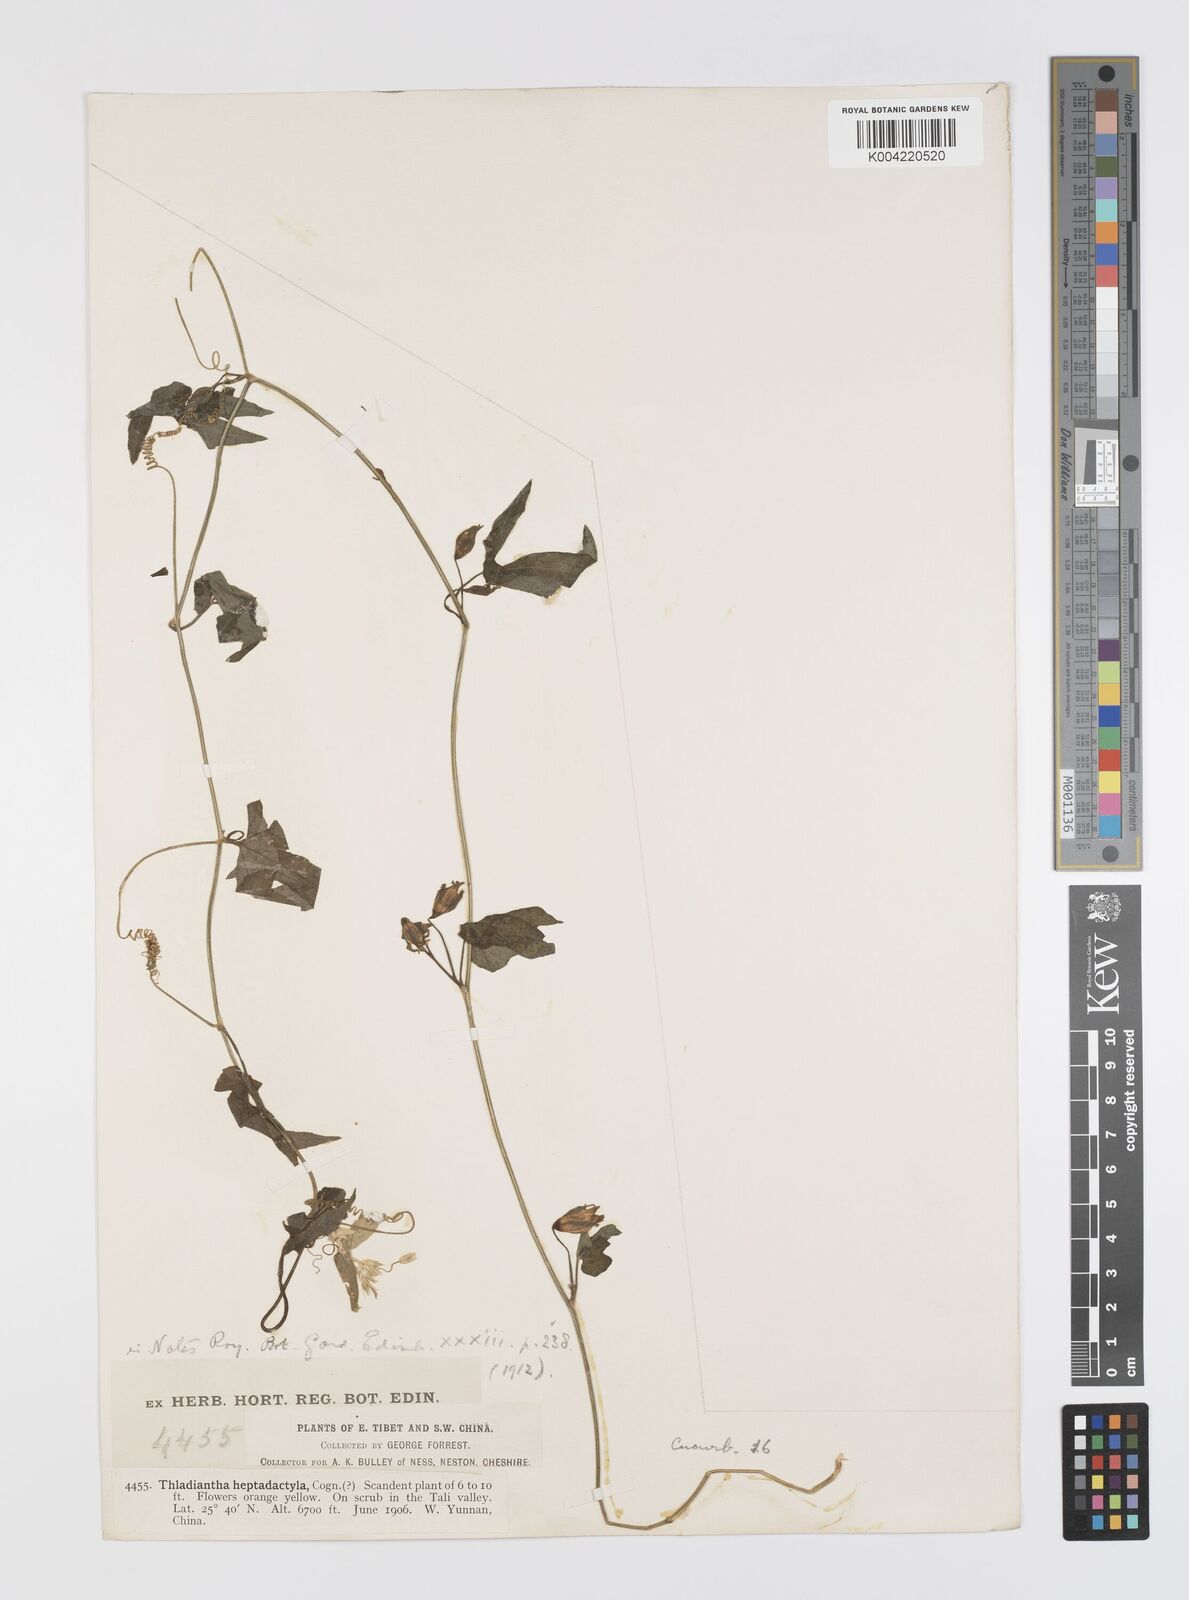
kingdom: Plantae
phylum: Tracheophyta
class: Magnoliopsida
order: Cucurbitales
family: Cucurbitaceae
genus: Thladiantha
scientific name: Thladiantha hookeri
